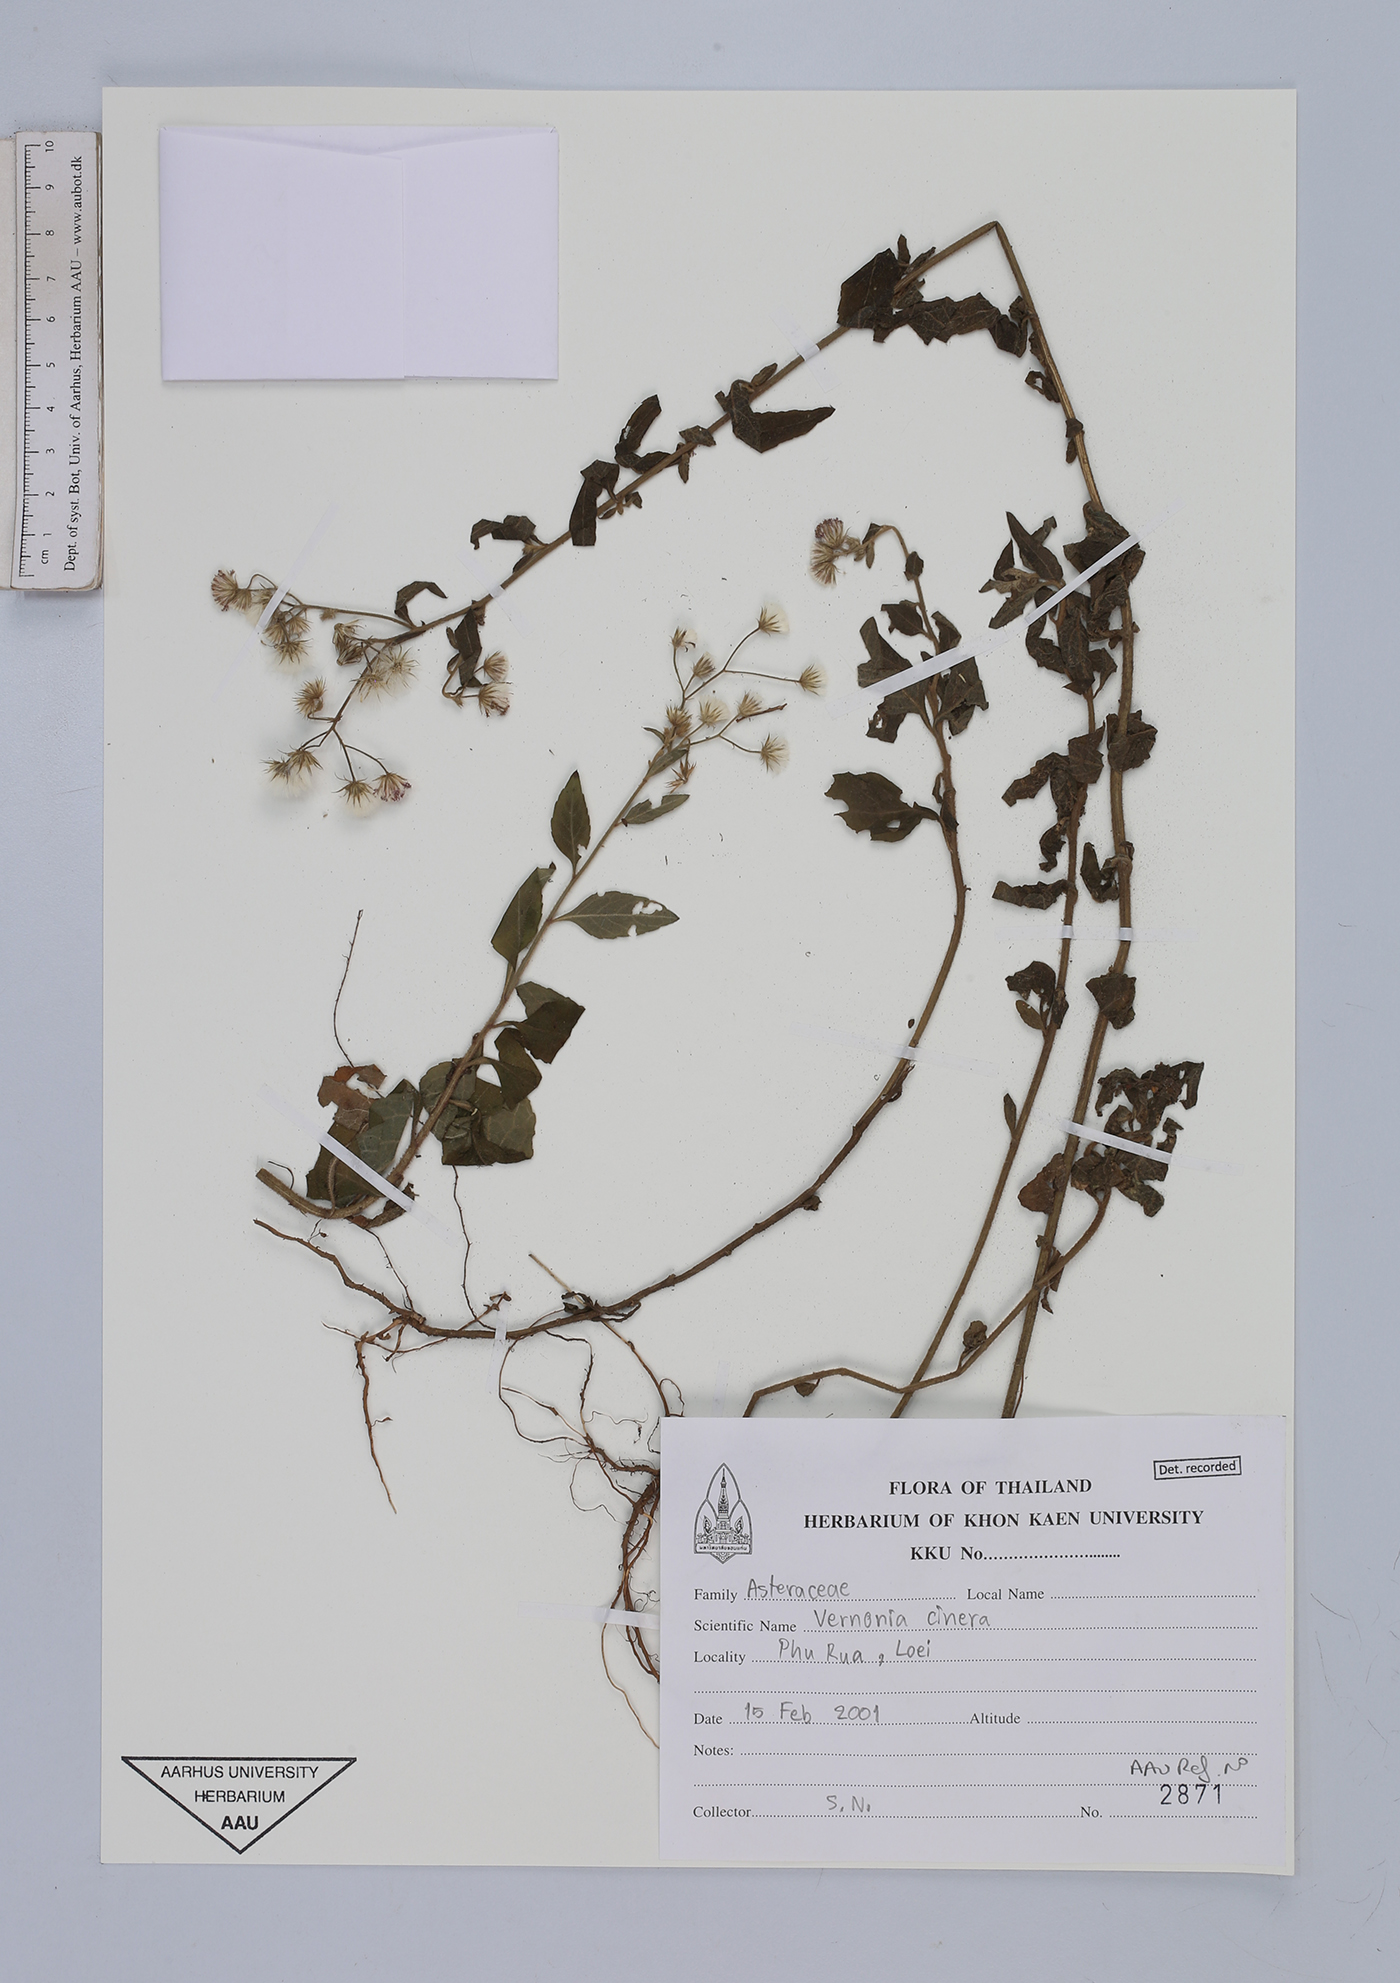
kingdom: Plantae
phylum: Tracheophyta
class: Magnoliopsida
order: Asterales
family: Asteraceae
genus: Cyanthillium
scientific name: Cyanthillium cinereum
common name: Little ironweed
